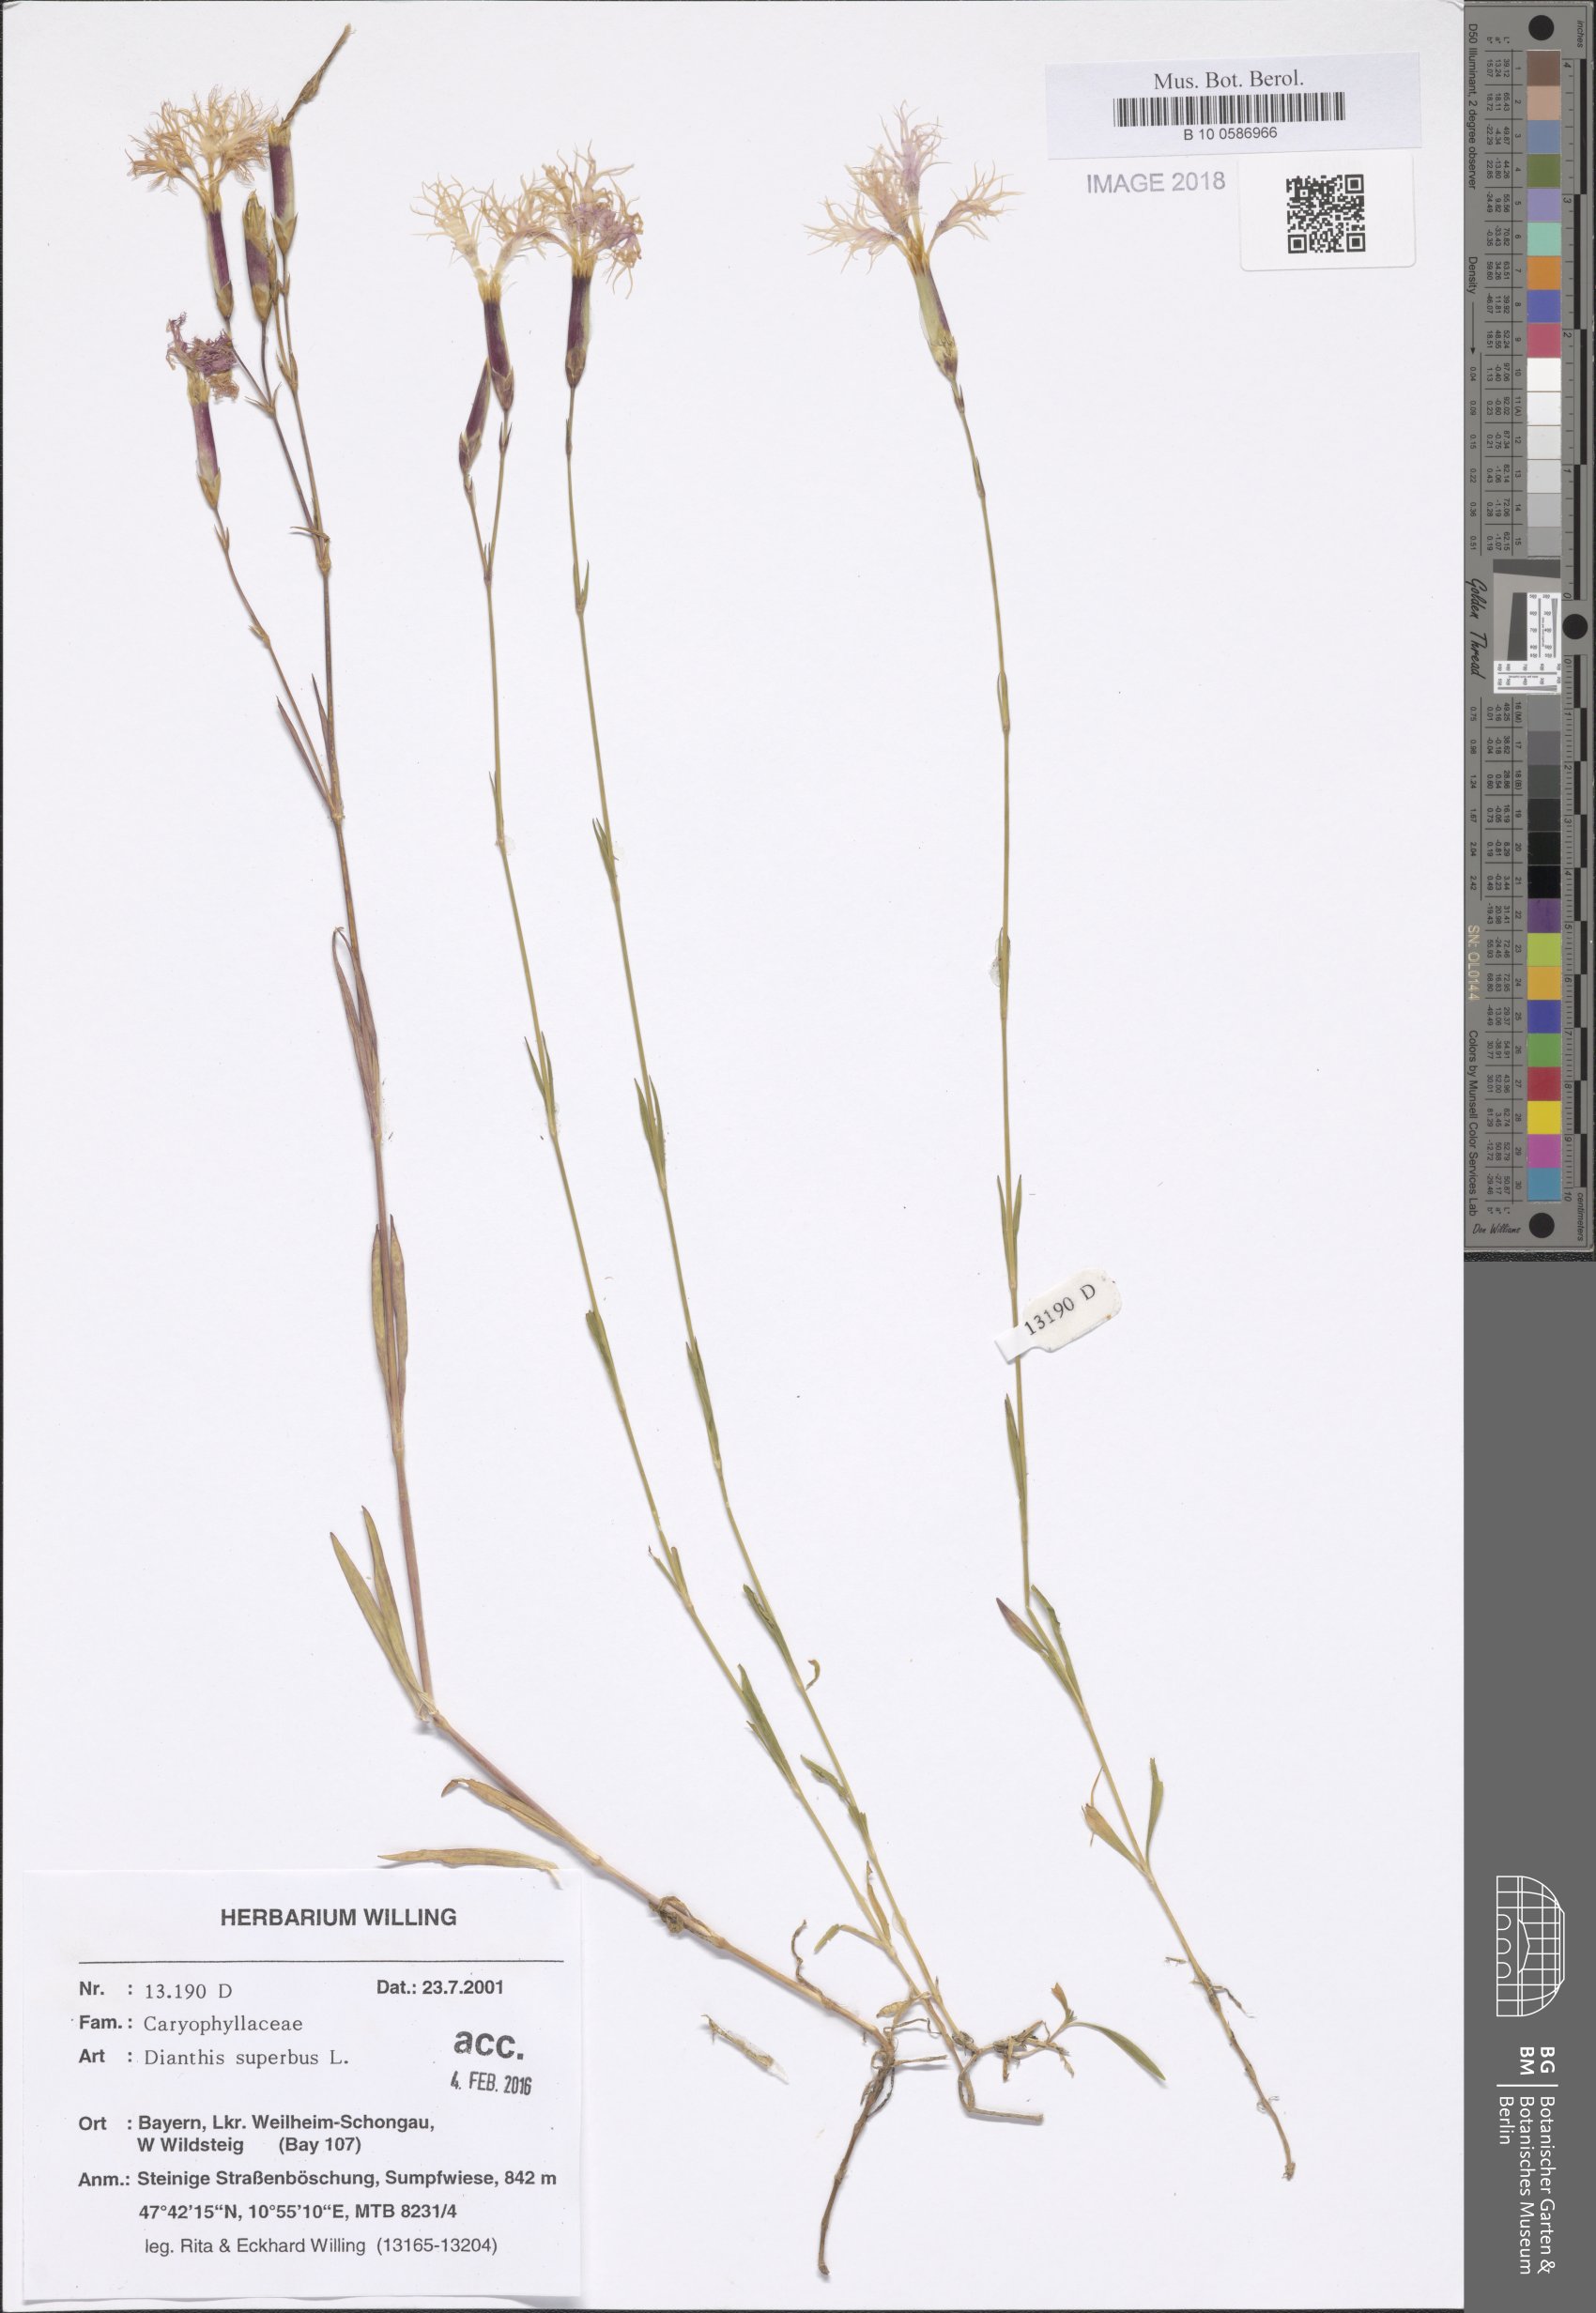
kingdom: Plantae
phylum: Tracheophyta
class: Magnoliopsida
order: Caryophyllales
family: Caryophyllaceae
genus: Dianthus
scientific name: Dianthus superbus
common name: Fringed pink
